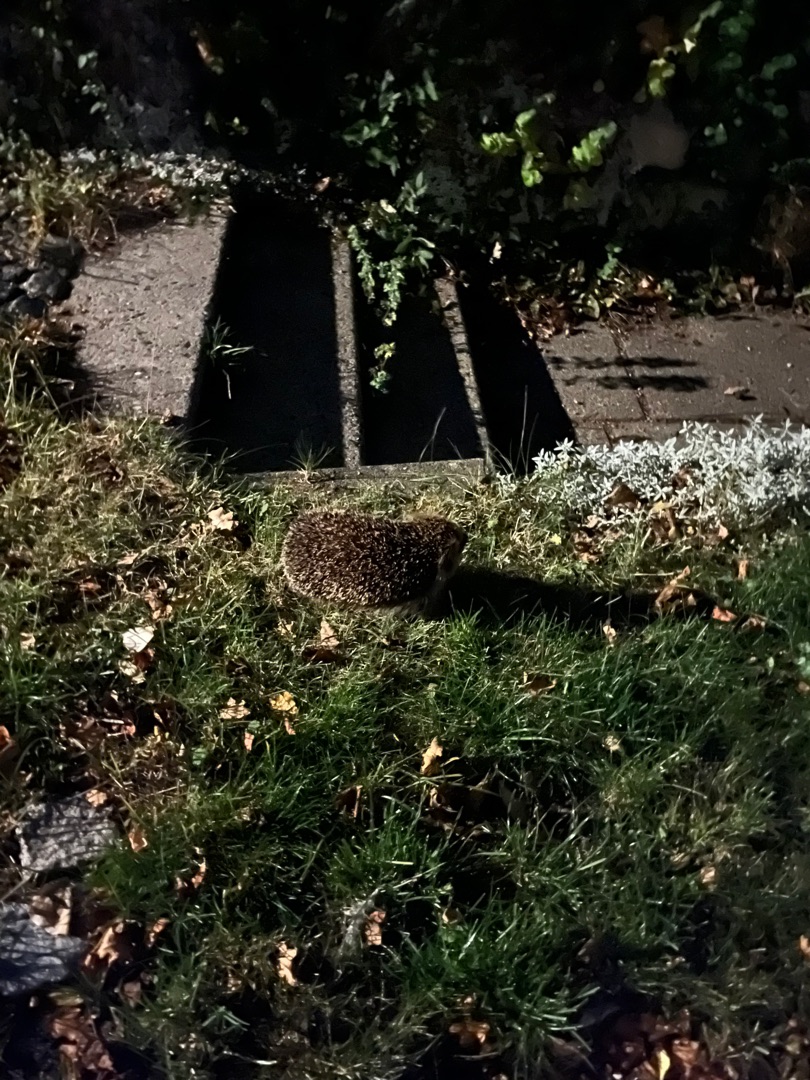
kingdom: Animalia
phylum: Chordata
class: Mammalia
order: Erinaceomorpha
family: Erinaceidae
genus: Erinaceus
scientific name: Erinaceus europaeus
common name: Pindsvin
